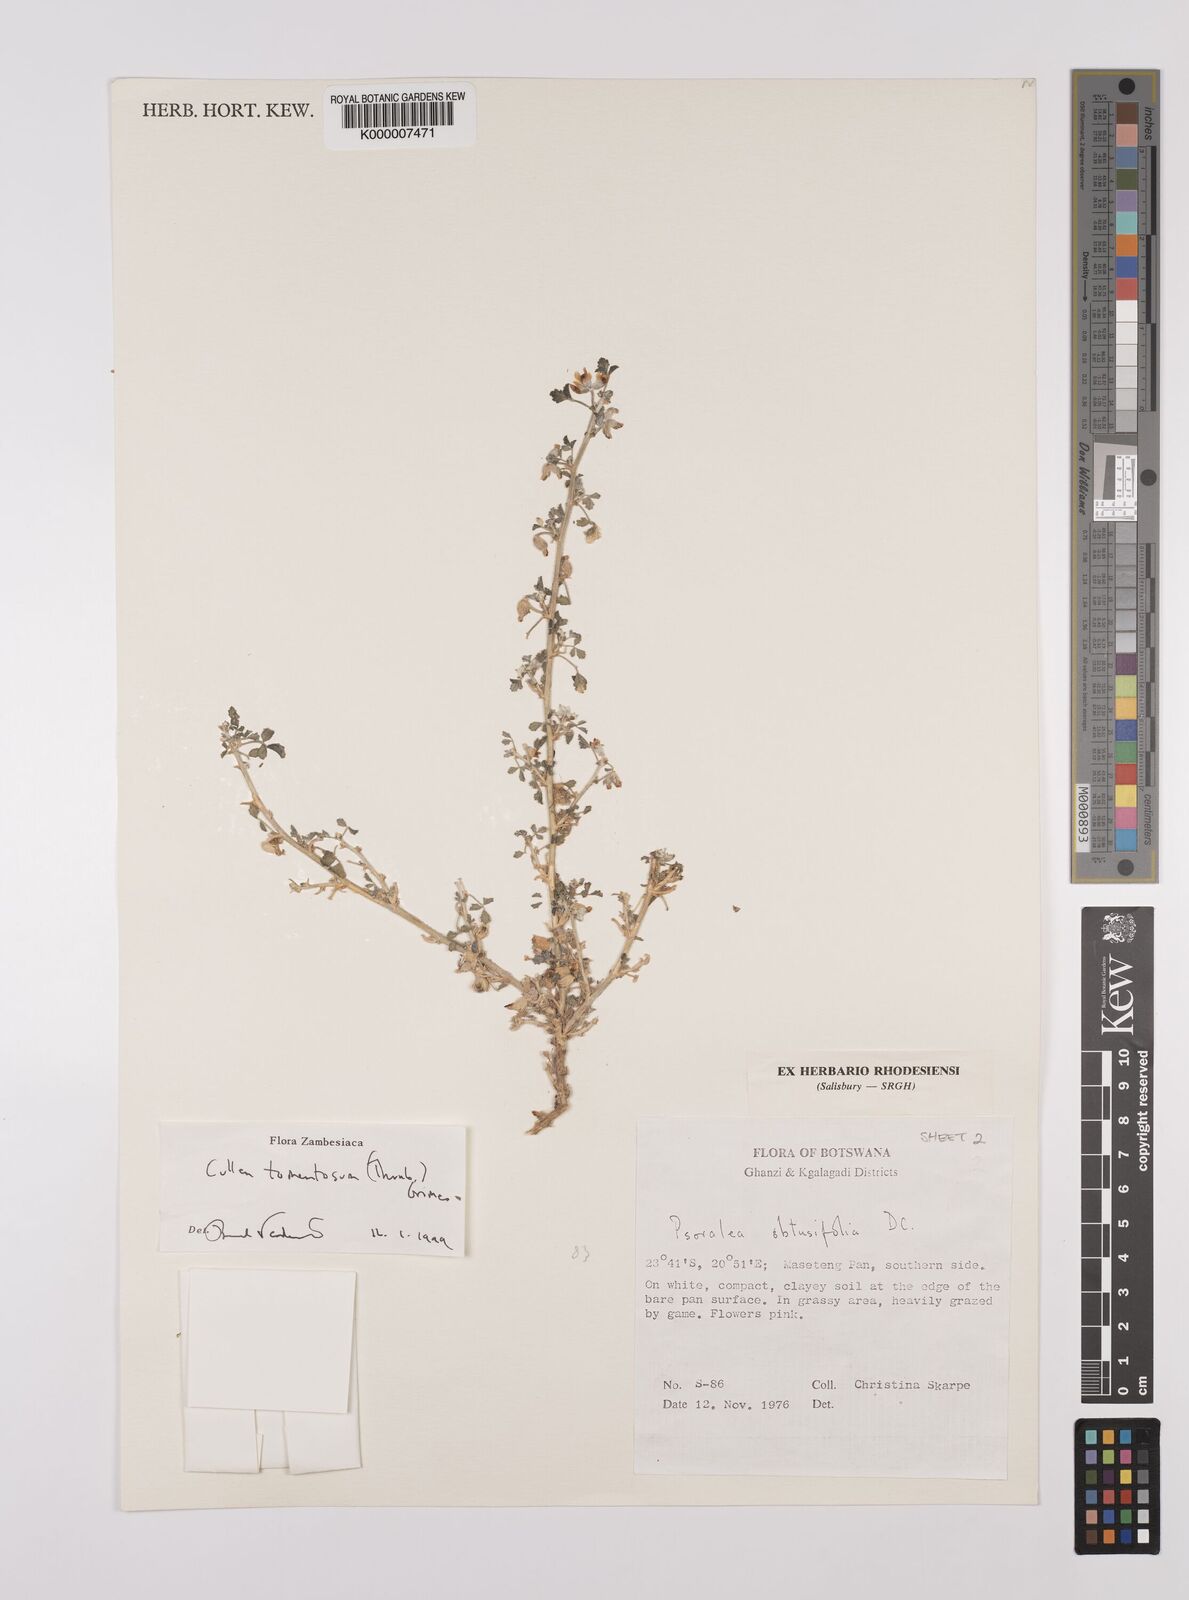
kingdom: Plantae
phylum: Tracheophyta
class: Magnoliopsida
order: Fabales
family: Fabaceae
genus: Cullen
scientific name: Cullen tomentosum
